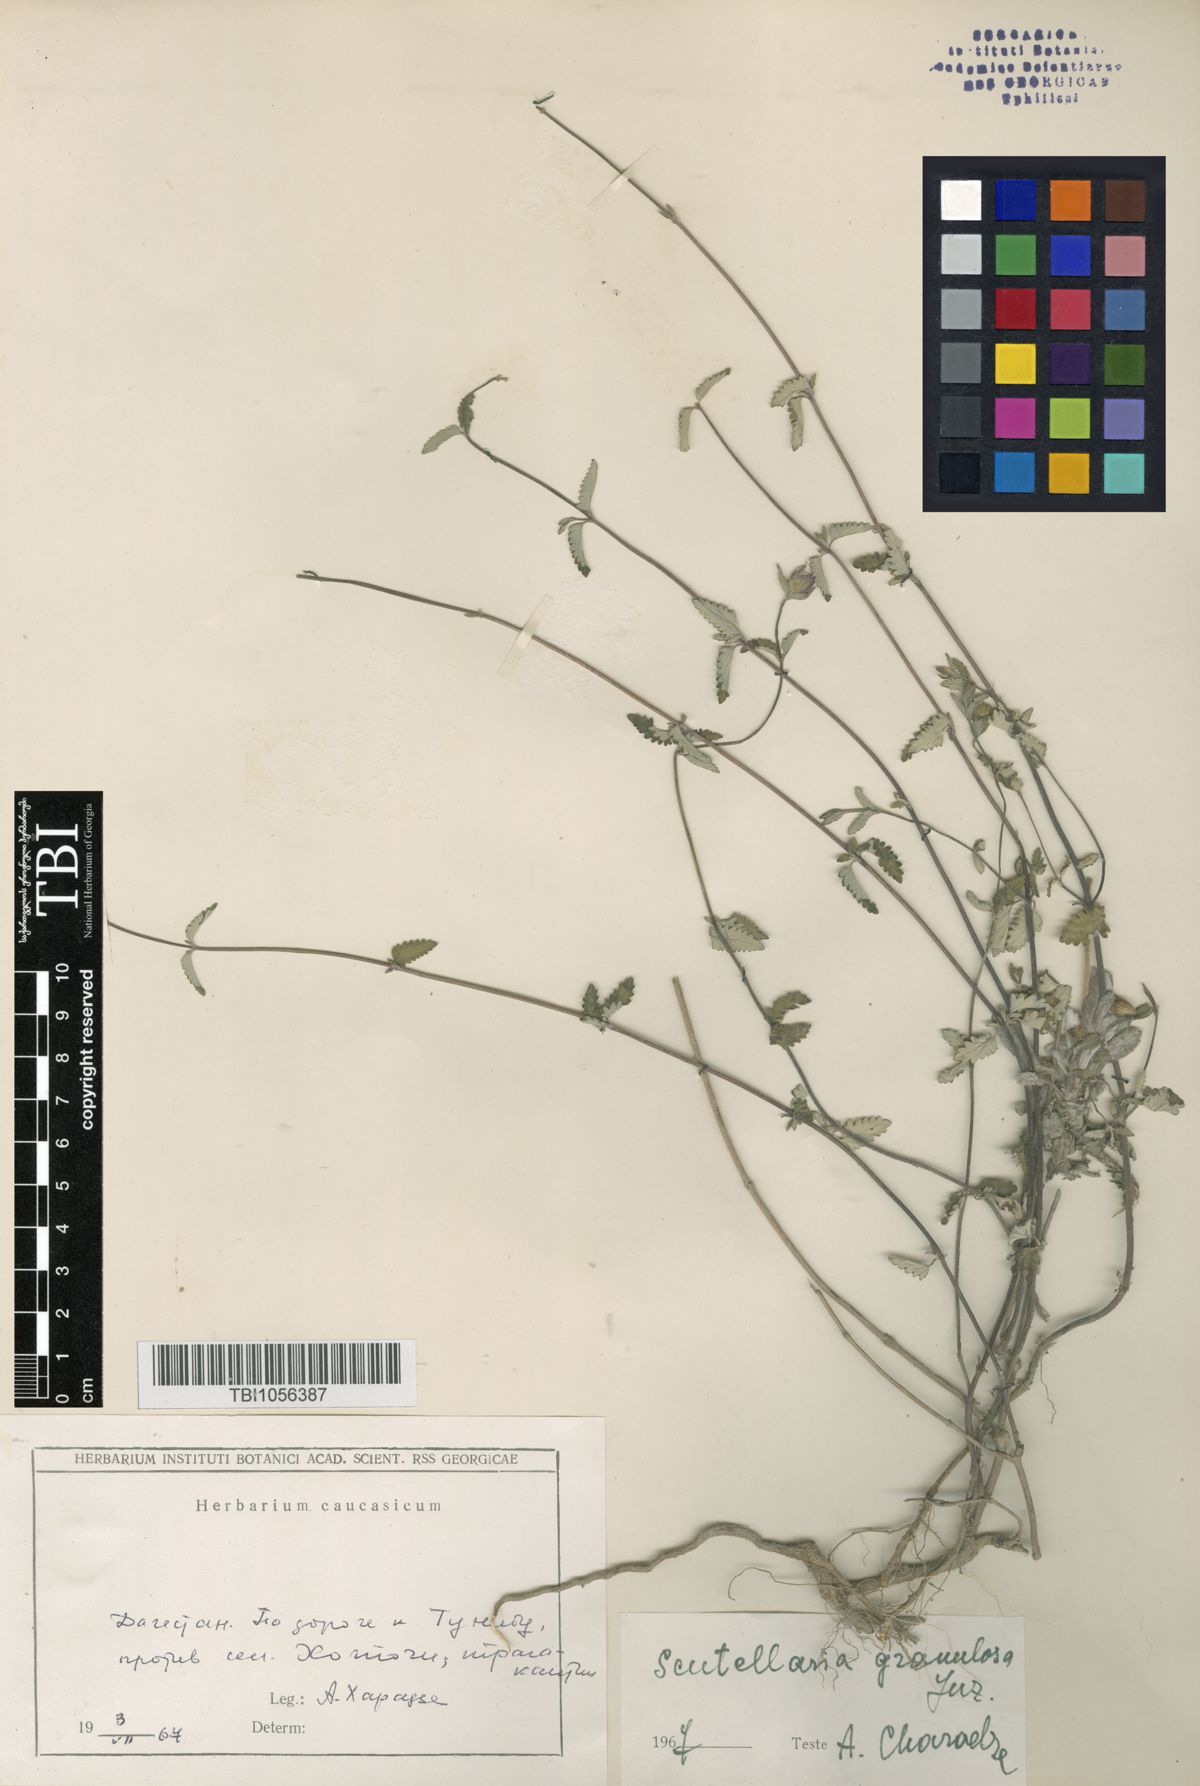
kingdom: Plantae
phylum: Tracheophyta
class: Magnoliopsida
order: Lamiales
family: Lamiaceae
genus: Scutellaria
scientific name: Scutellaria granulosa
